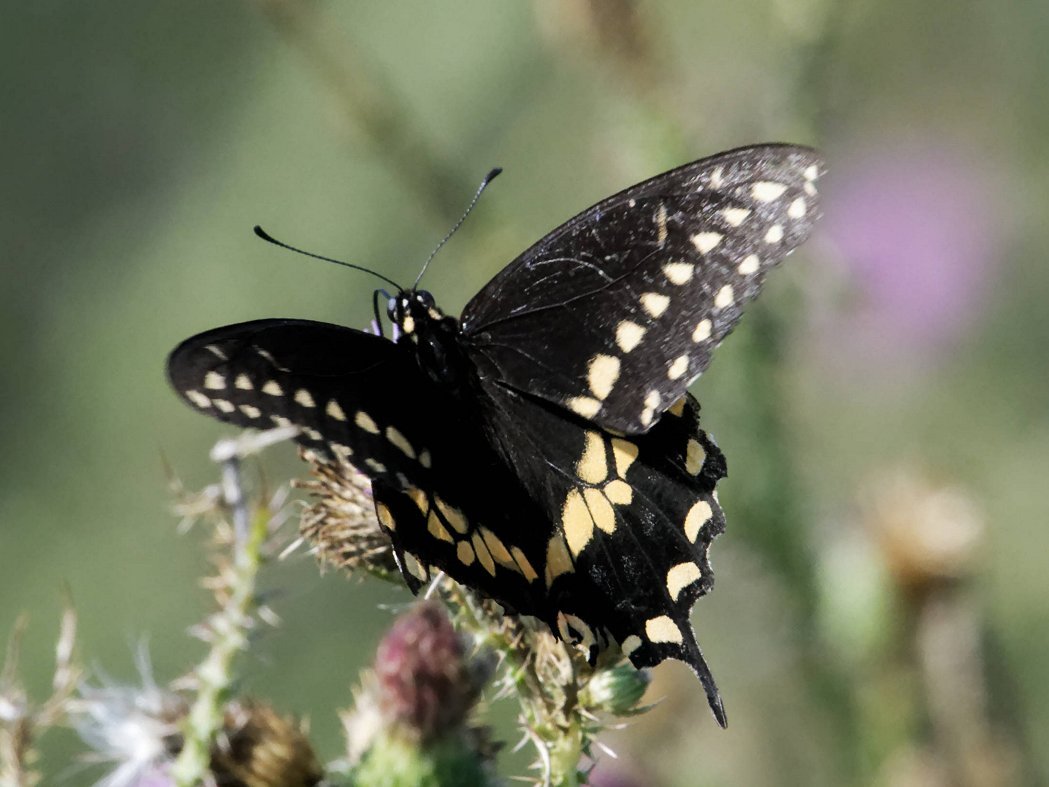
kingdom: Animalia
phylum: Arthropoda
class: Insecta
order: Lepidoptera
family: Papilionidae
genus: Papilio
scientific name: Papilio polyxenes
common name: Black Swallowtail
